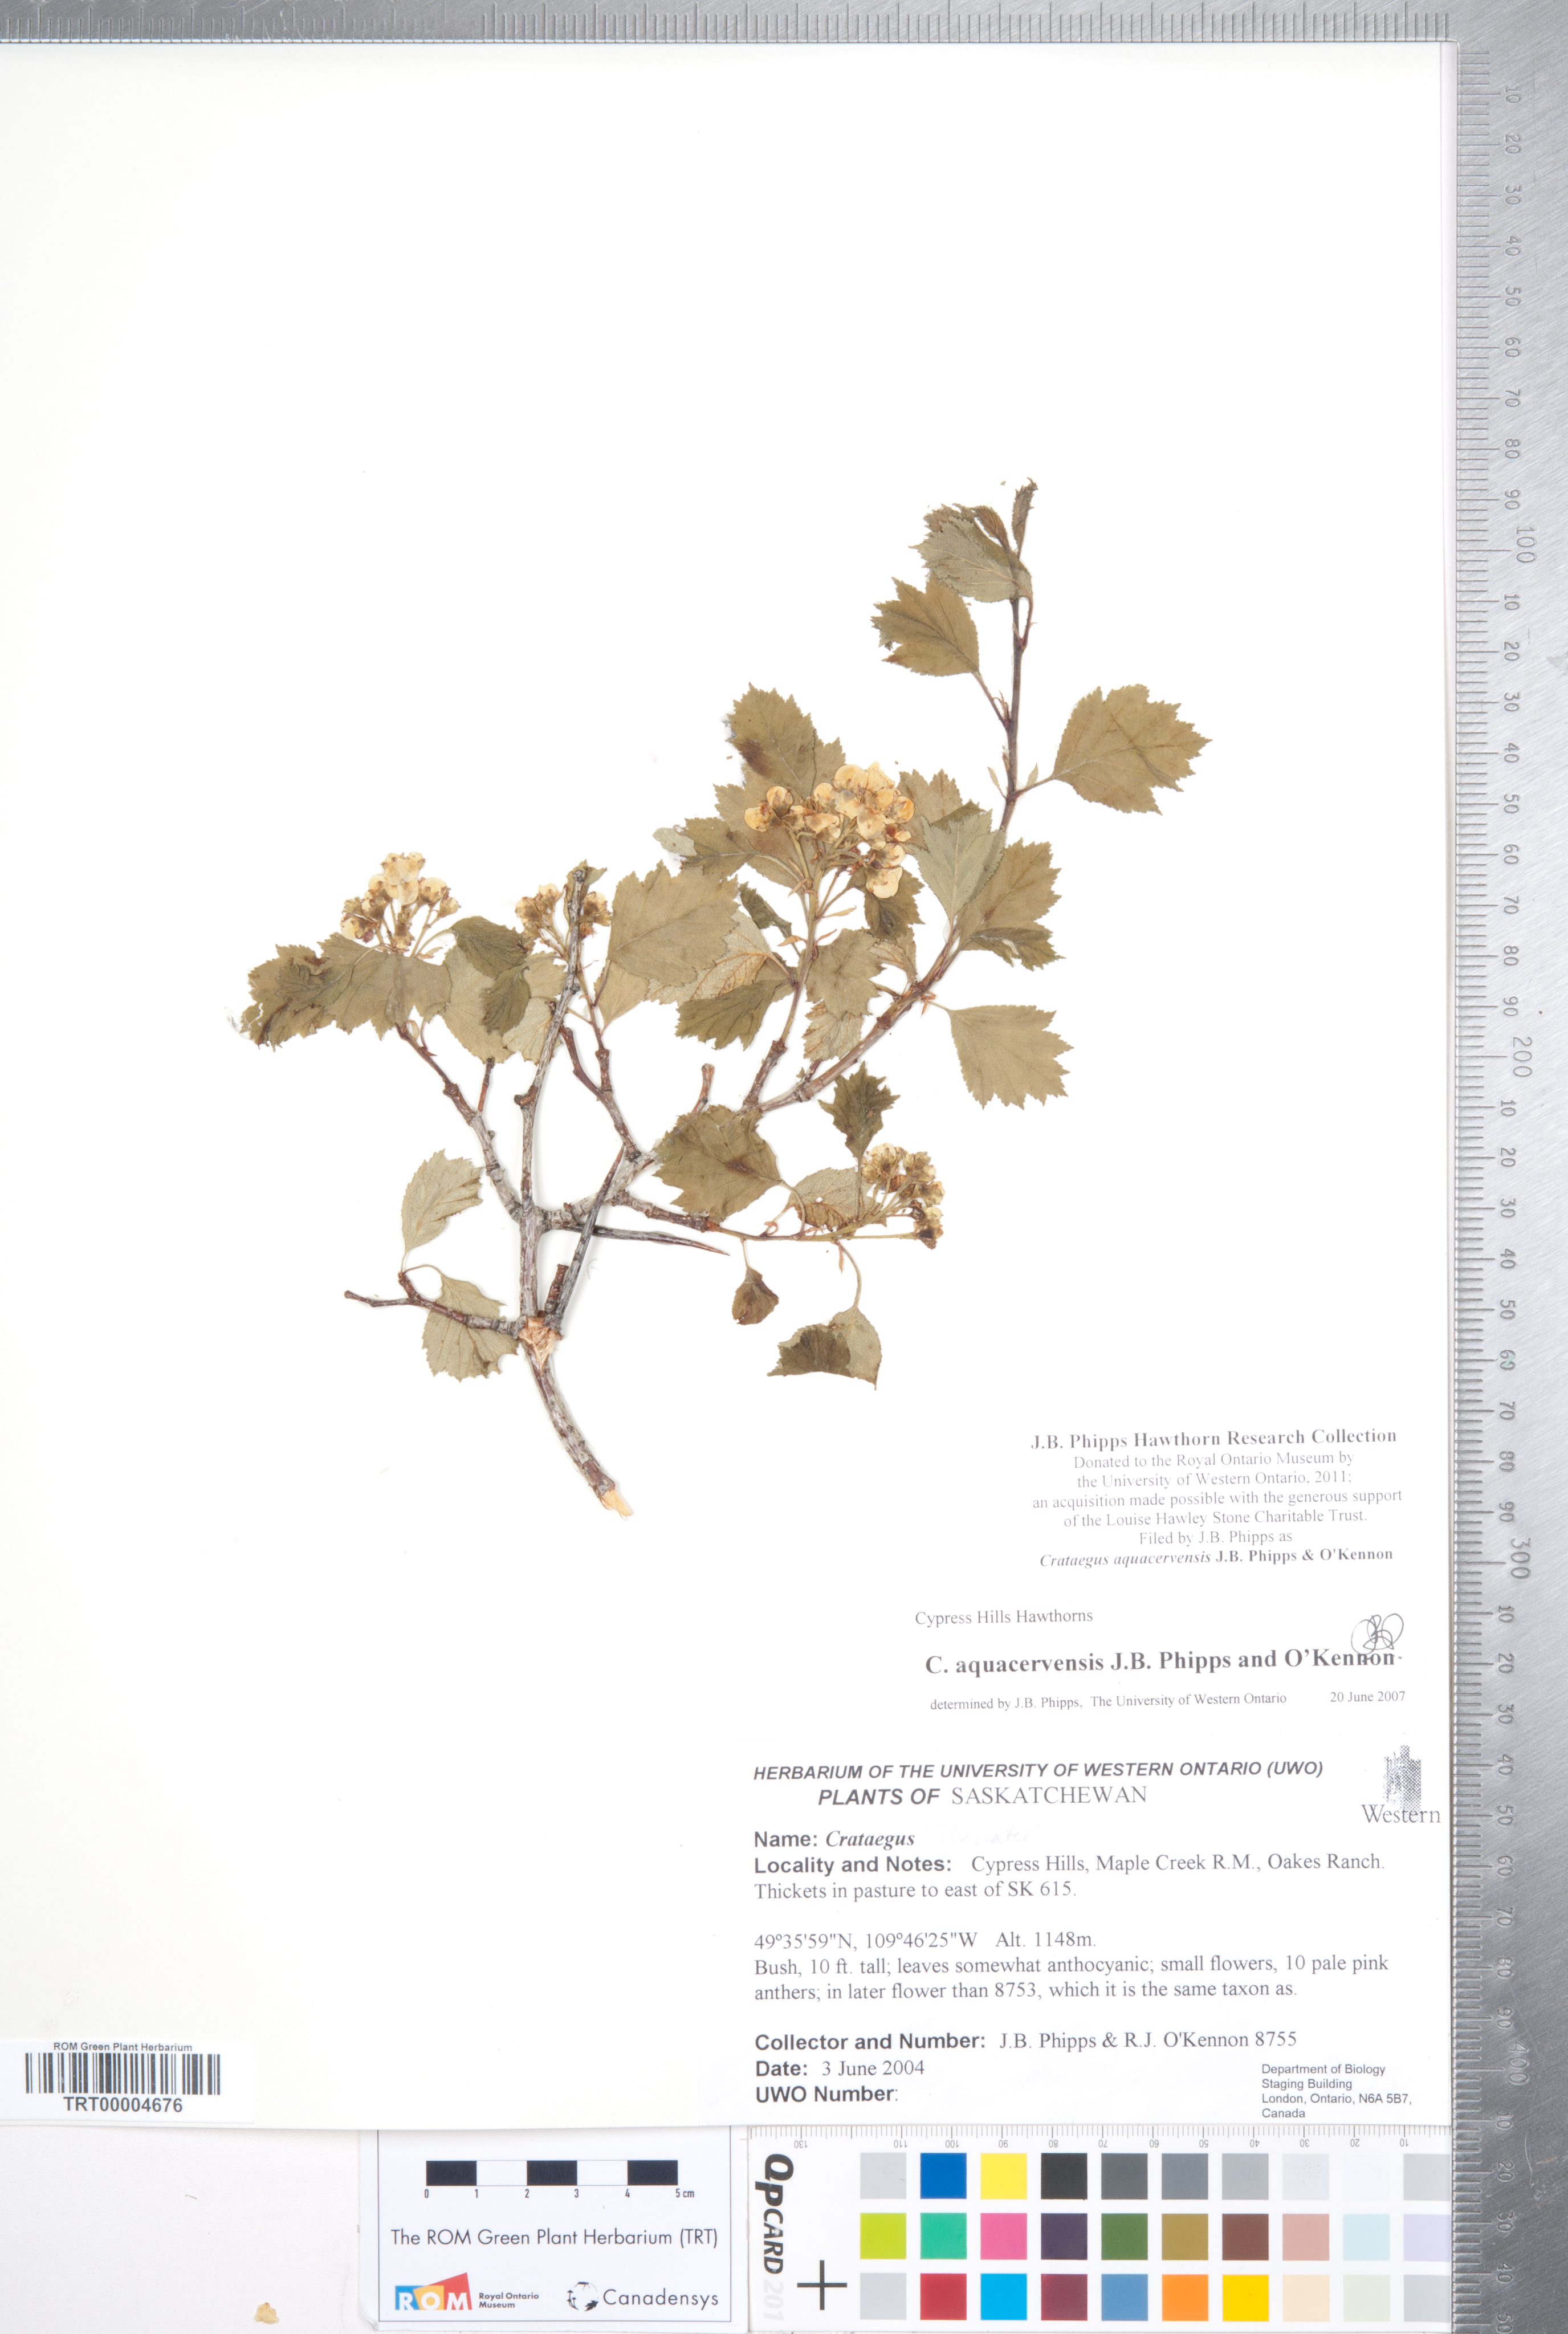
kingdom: Plantae
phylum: Tracheophyta
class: Magnoliopsida
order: Rosales
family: Rosaceae
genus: Crataegus
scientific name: Crataegus aquacervensis
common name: Elkwater hawthorn
